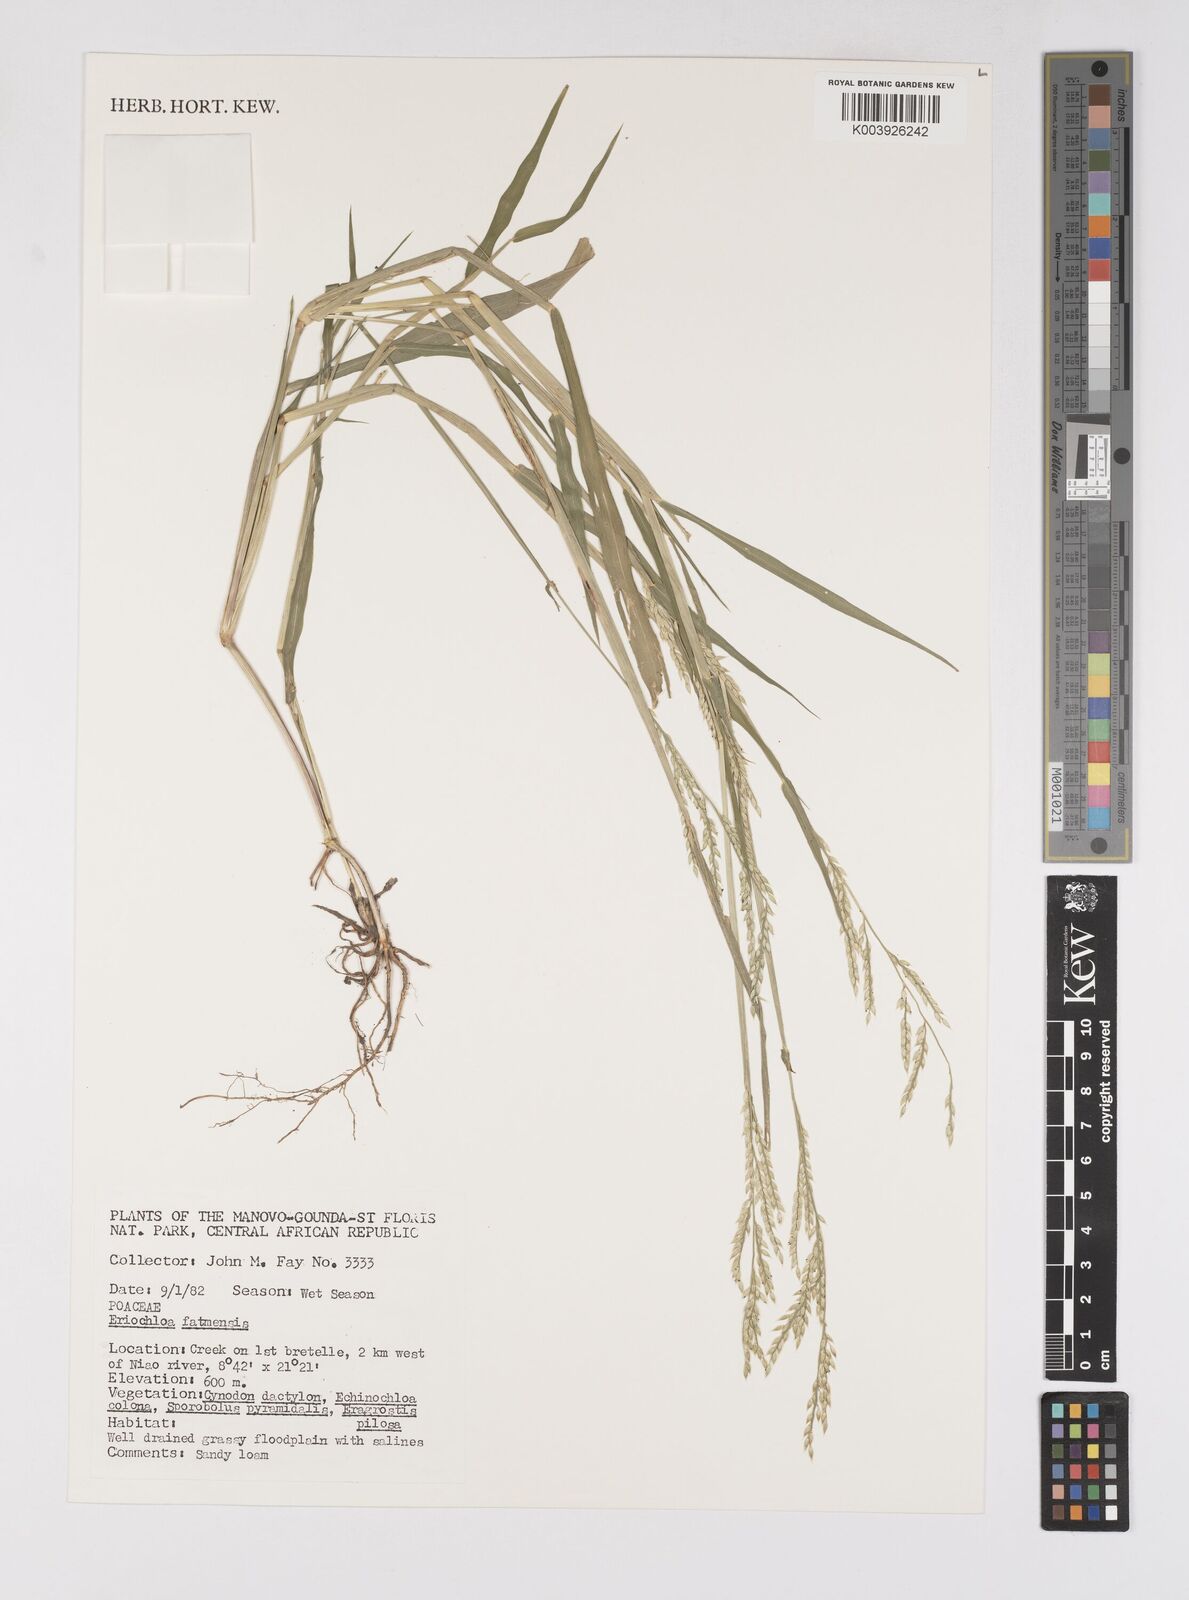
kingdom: Plantae
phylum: Tracheophyta
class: Liliopsida
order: Poales
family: Poaceae
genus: Eriochloa
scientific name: Eriochloa barbatus
